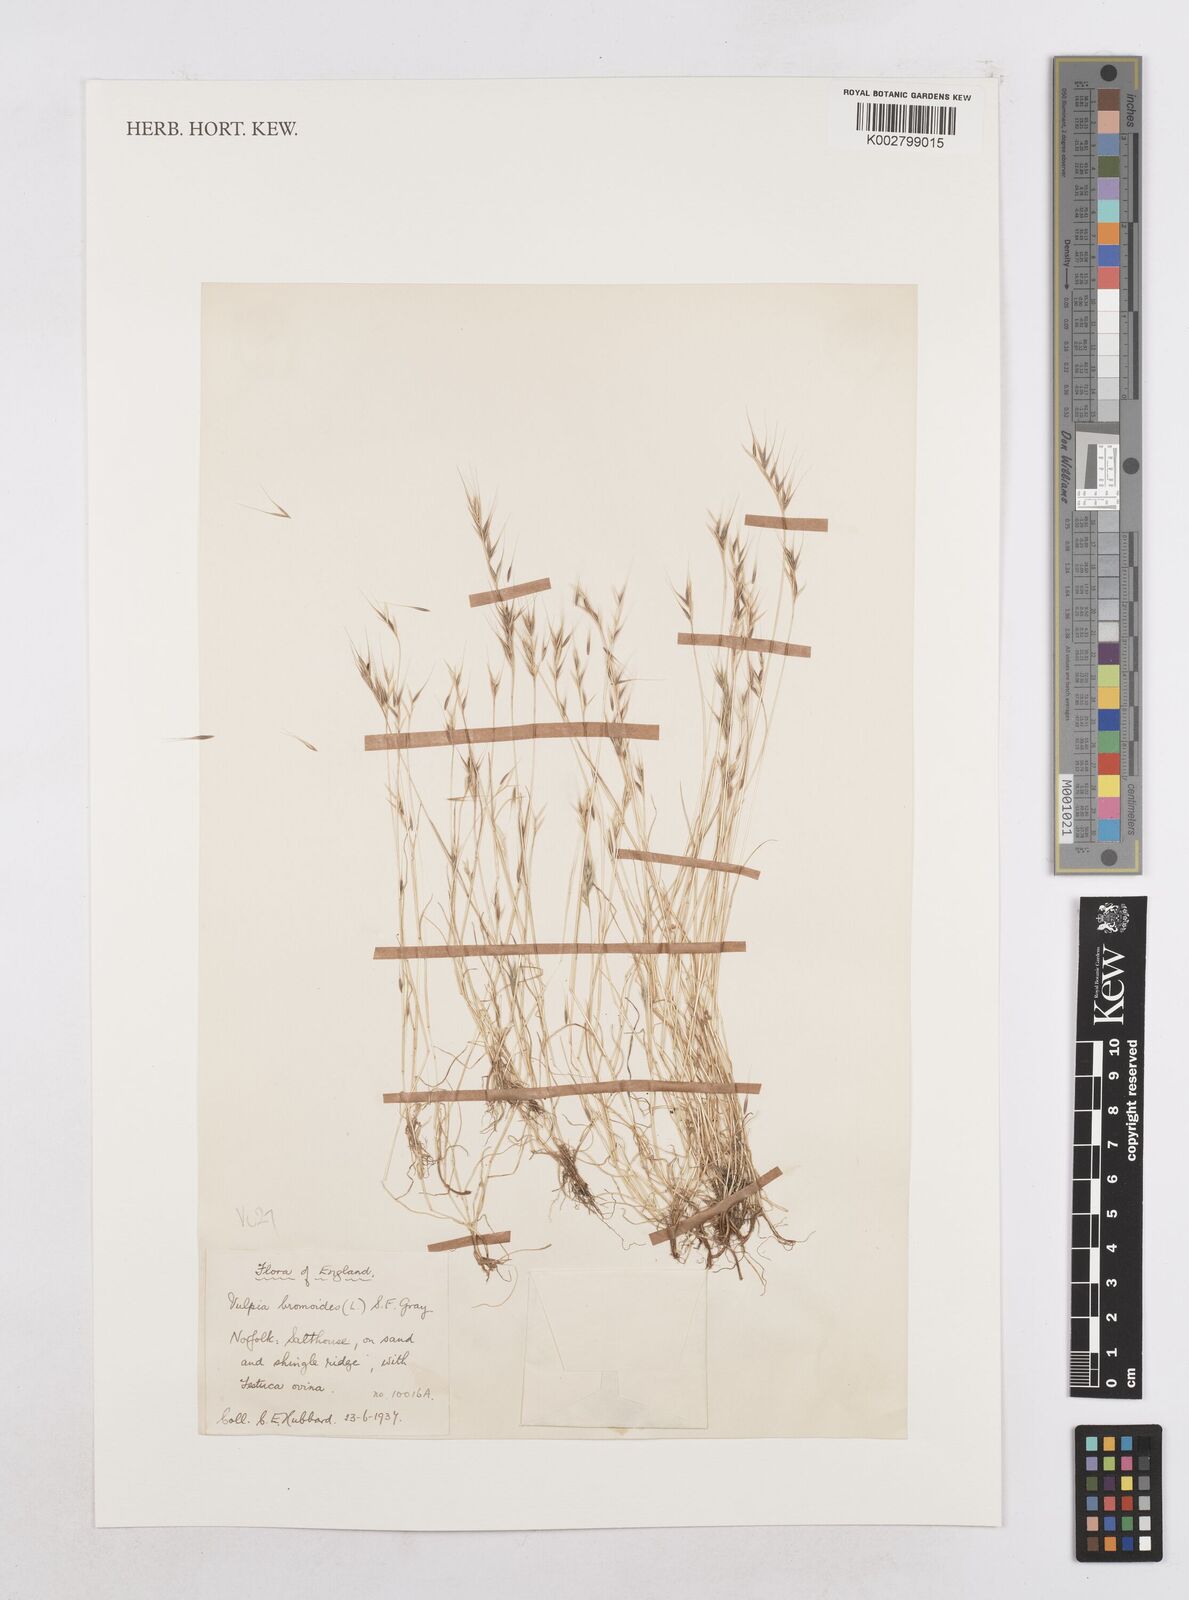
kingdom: Plantae
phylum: Tracheophyta
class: Liliopsida
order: Poales
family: Poaceae
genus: Festuca
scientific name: Festuca bromoides
